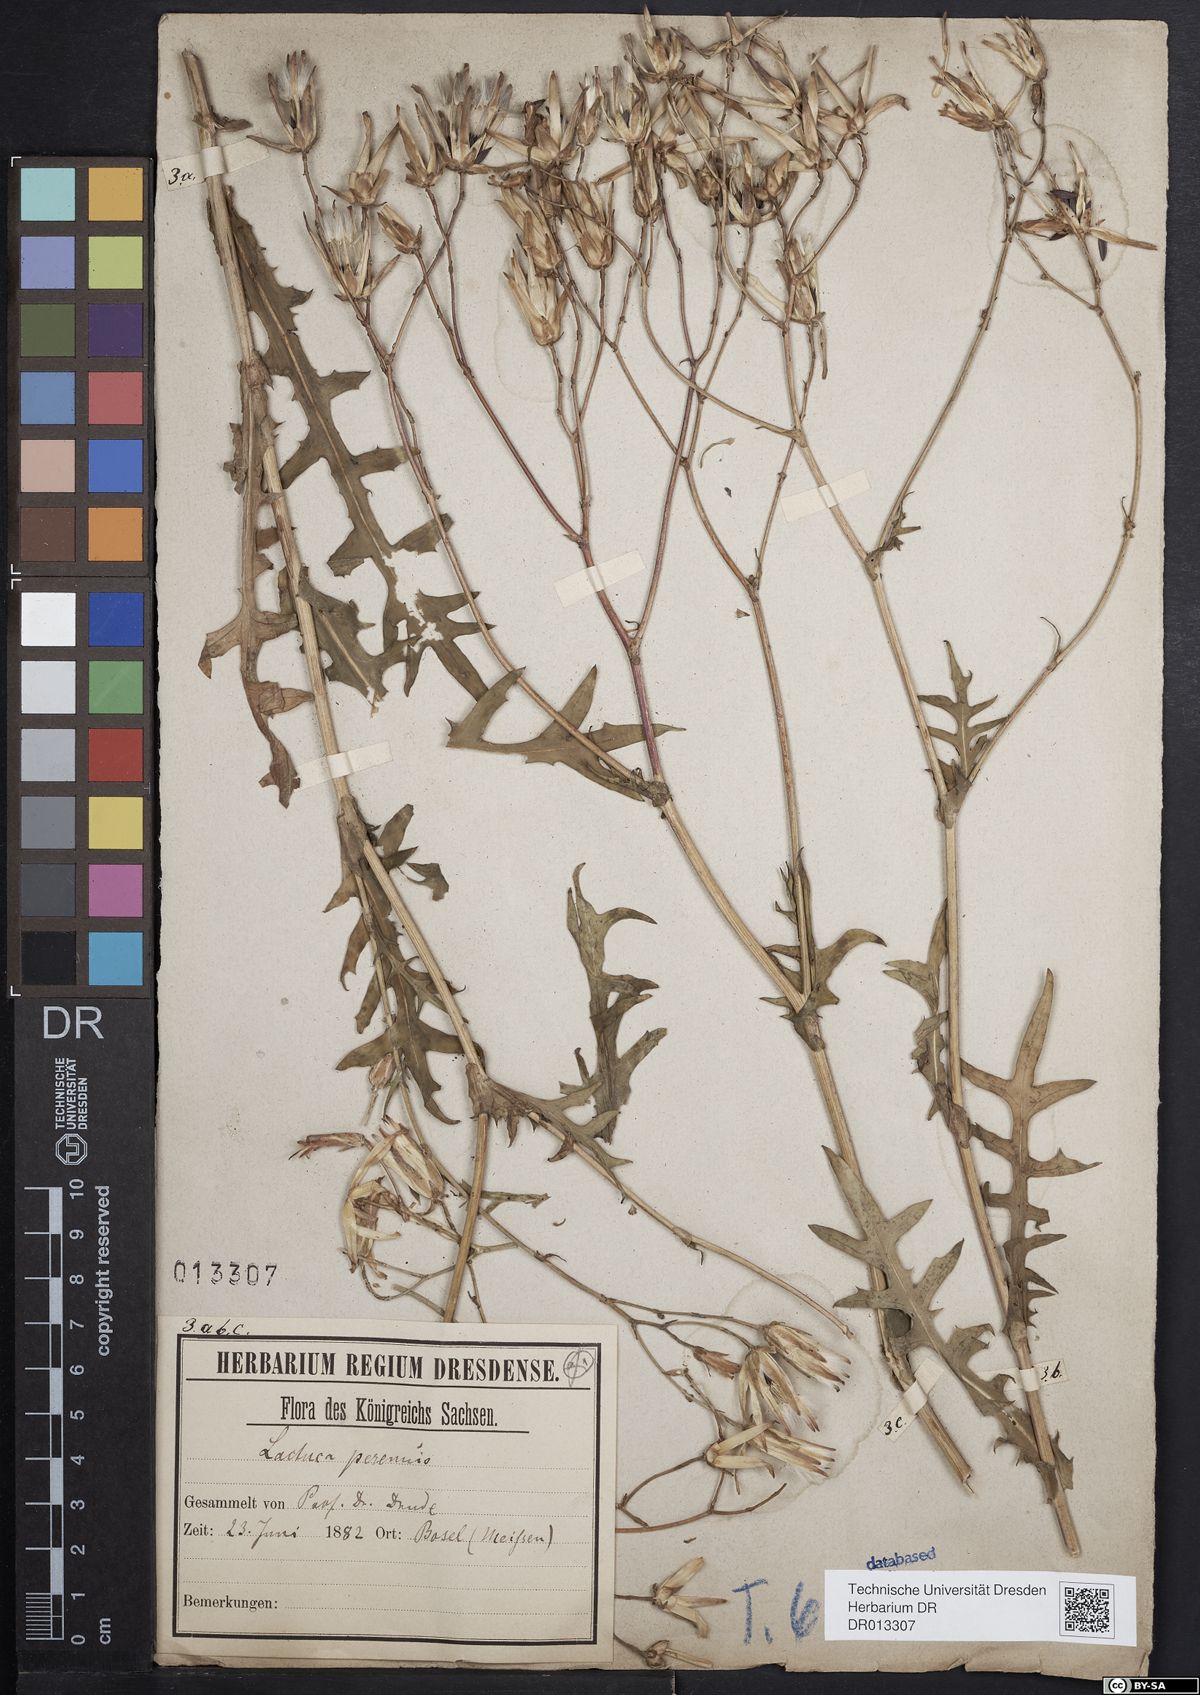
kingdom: Plantae
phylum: Tracheophyta
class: Magnoliopsida
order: Asterales
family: Asteraceae
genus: Lactuca
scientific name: Lactuca perennis
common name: Mountain lettuce
